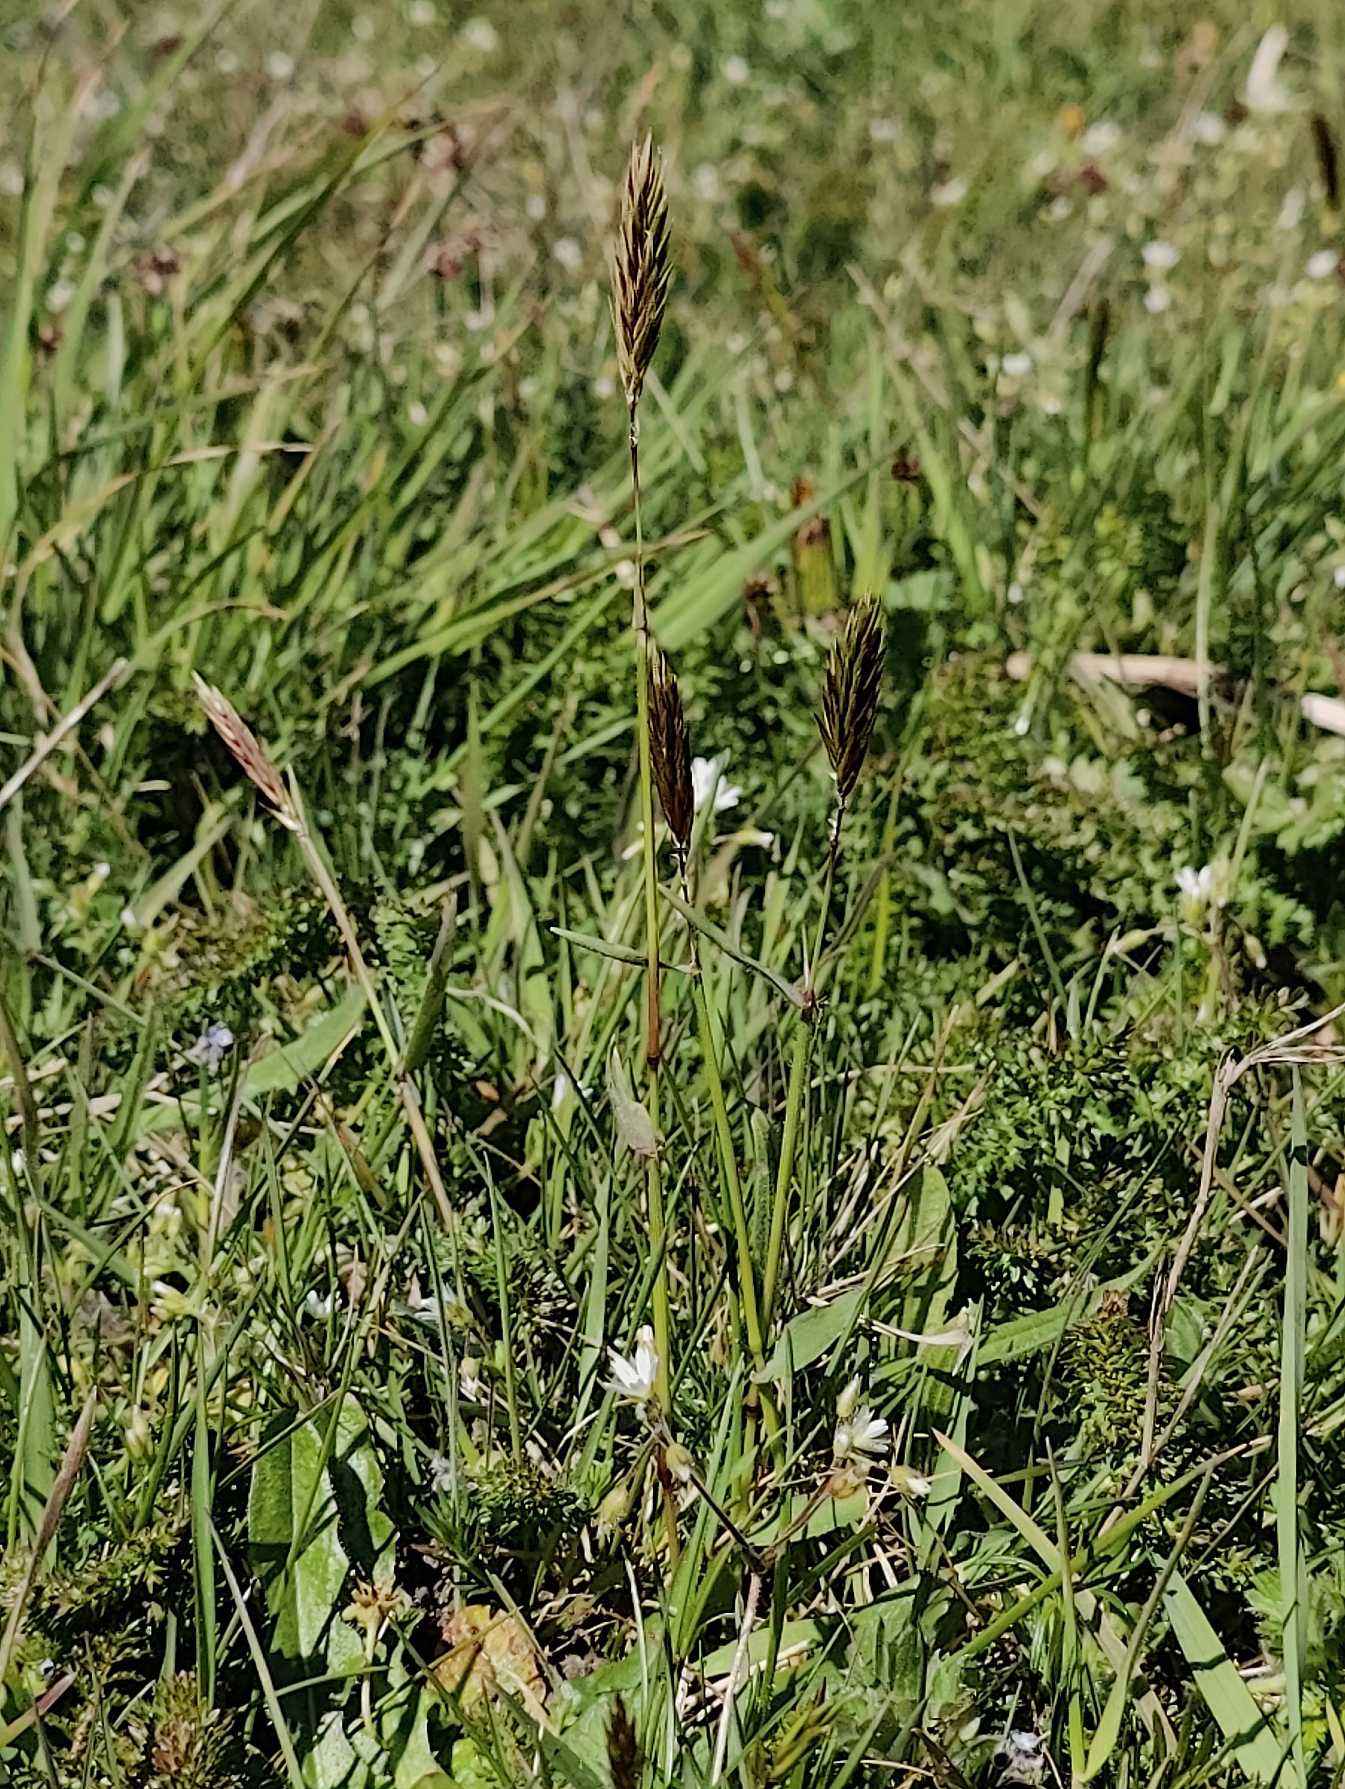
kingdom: Plantae
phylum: Tracheophyta
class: Liliopsida
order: Poales
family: Poaceae
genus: Anthoxanthum
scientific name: Anthoxanthum odoratum
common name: Vellugtende gulaks
